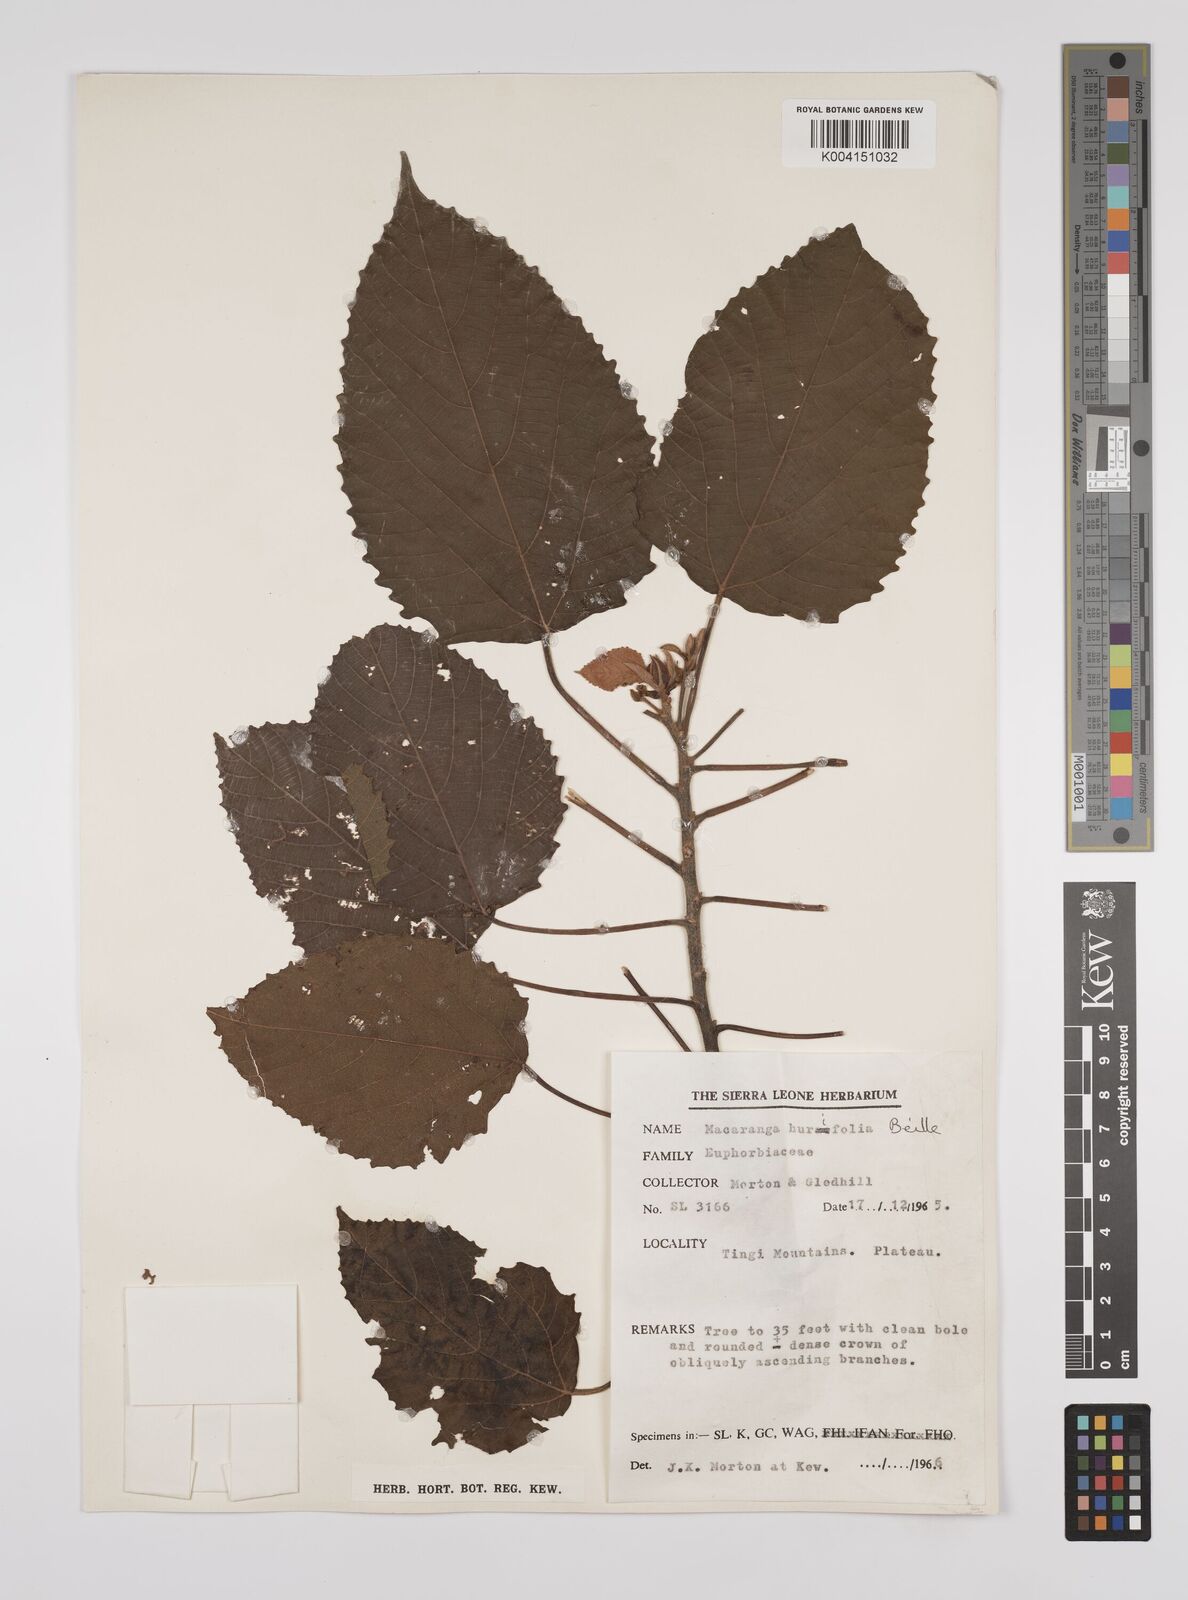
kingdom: Plantae
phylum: Tracheophyta
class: Magnoliopsida
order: Malpighiales
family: Euphorbiaceae
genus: Macaranga
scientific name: Macaranga hurifolia
